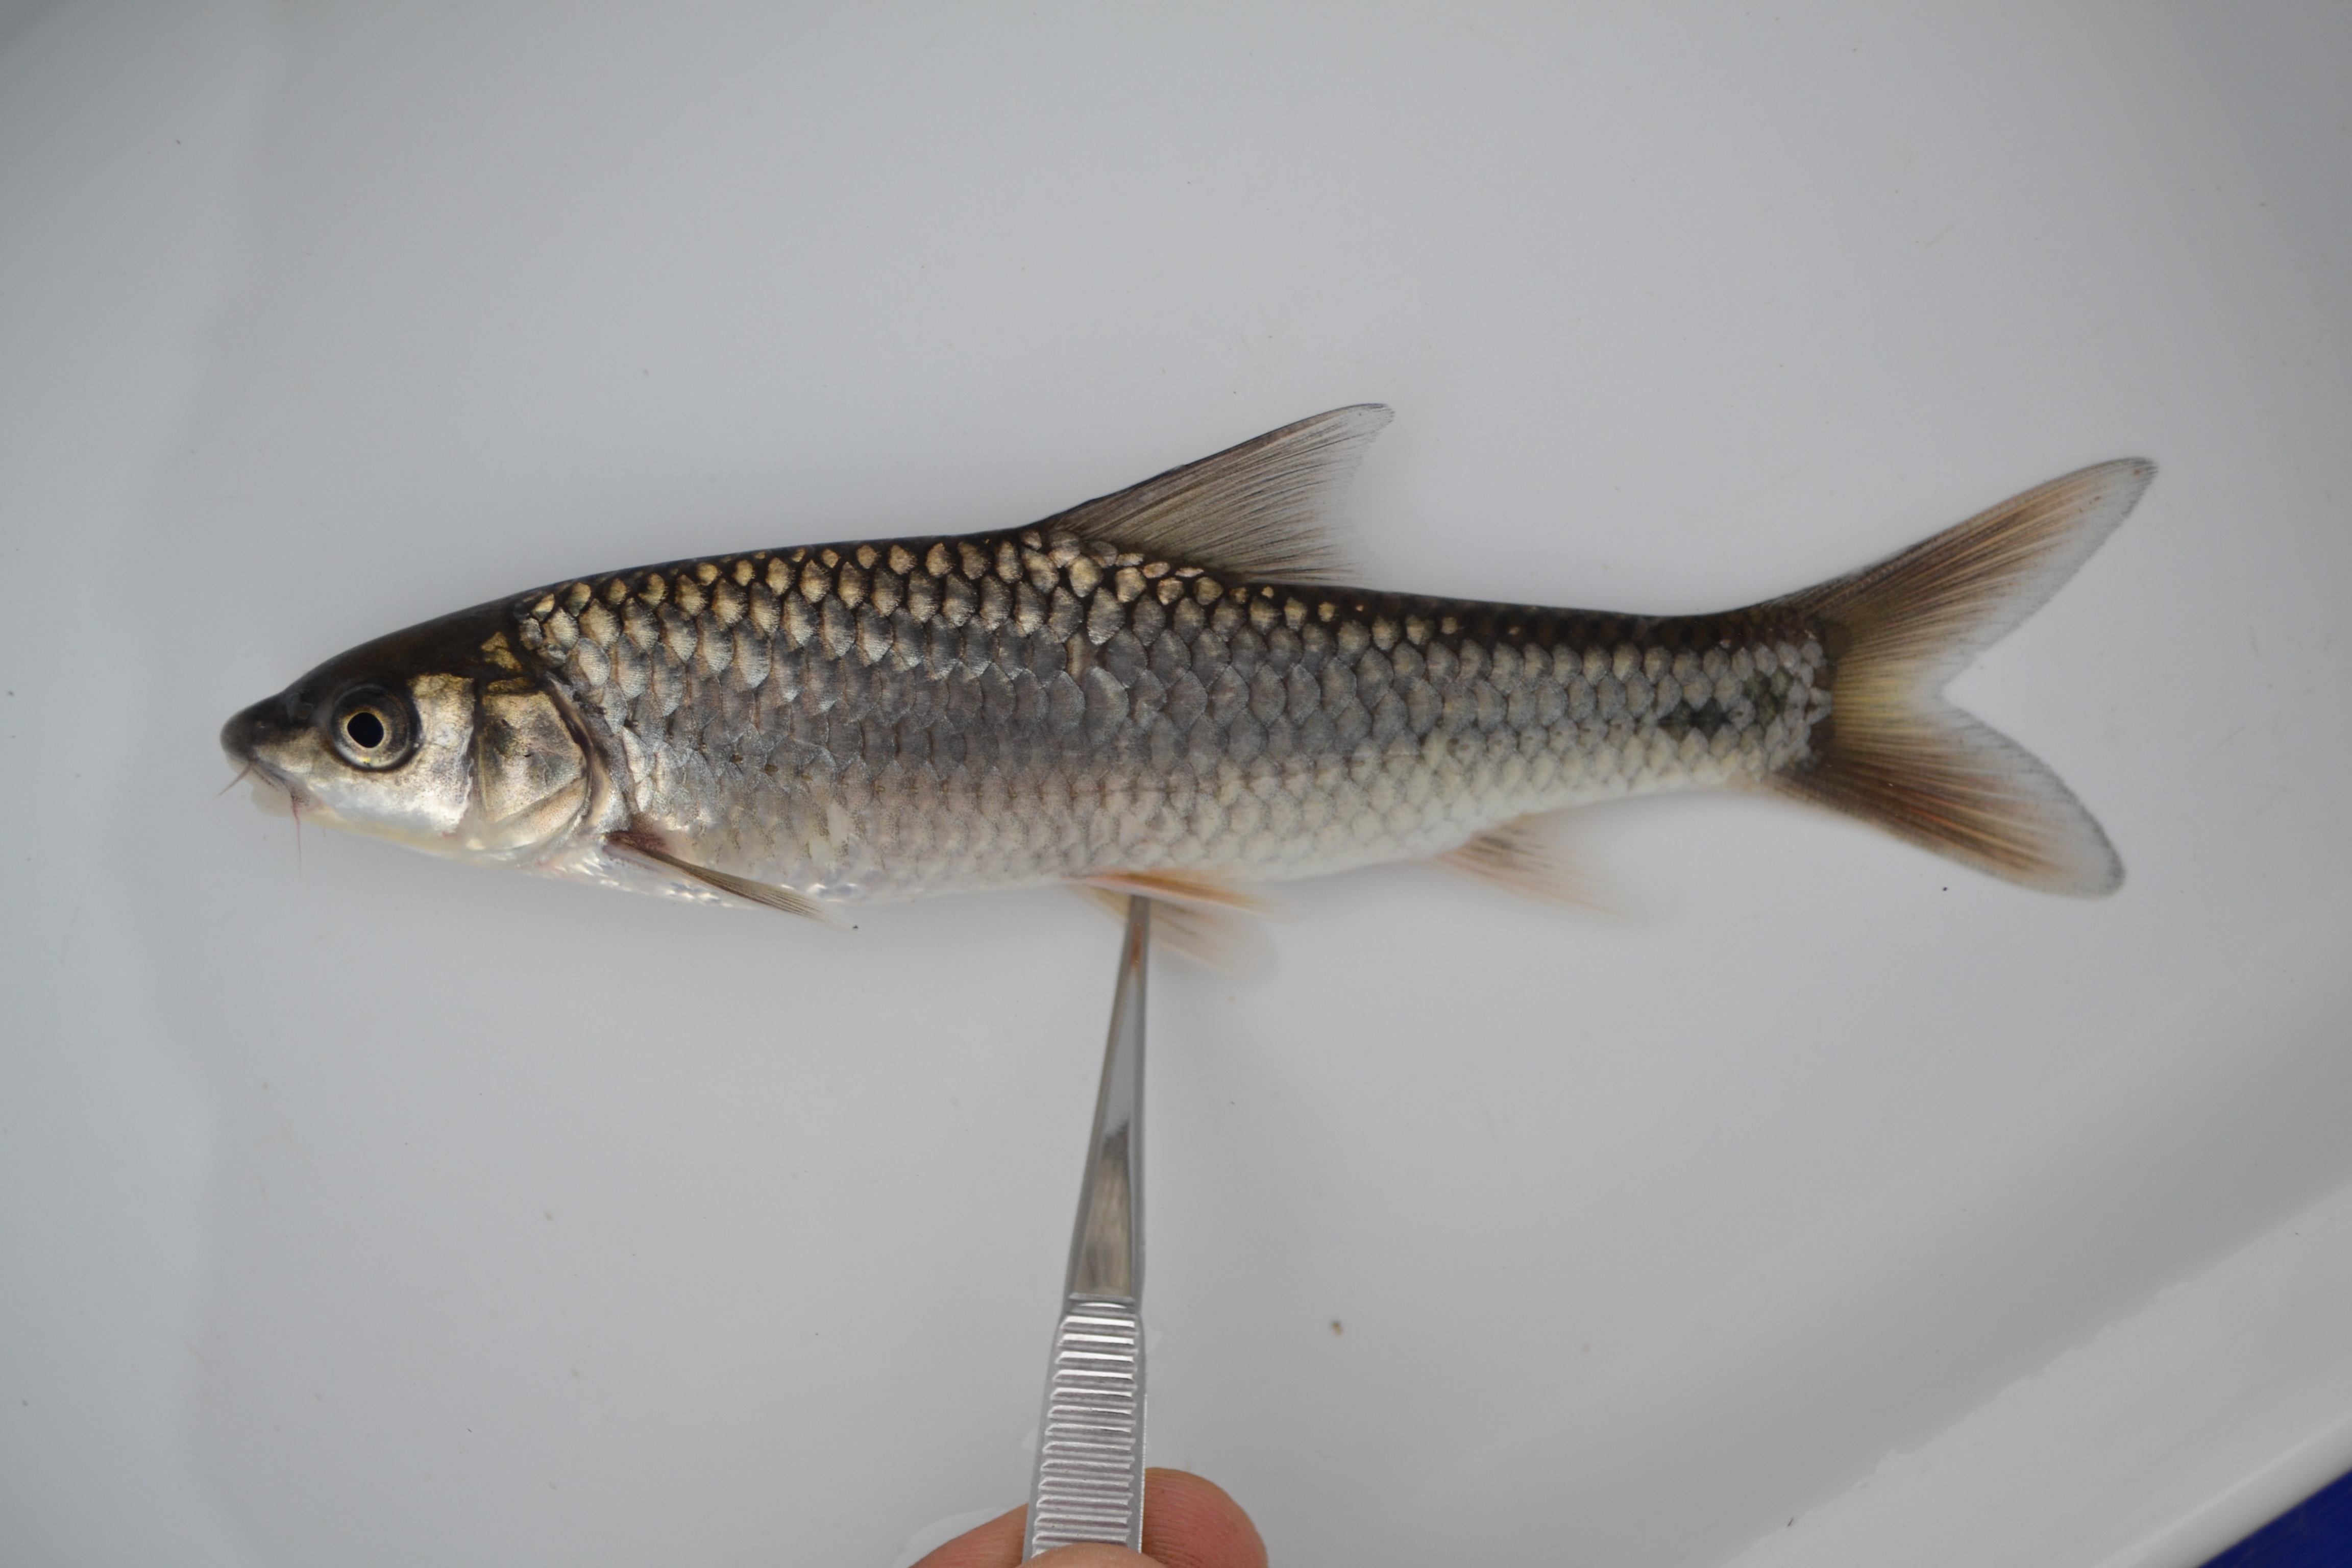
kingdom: Animalia
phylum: Chordata
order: Cypriniformes
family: Cyprinidae
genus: Labeobarbus
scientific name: Labeobarbus natalensis
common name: Scaly
